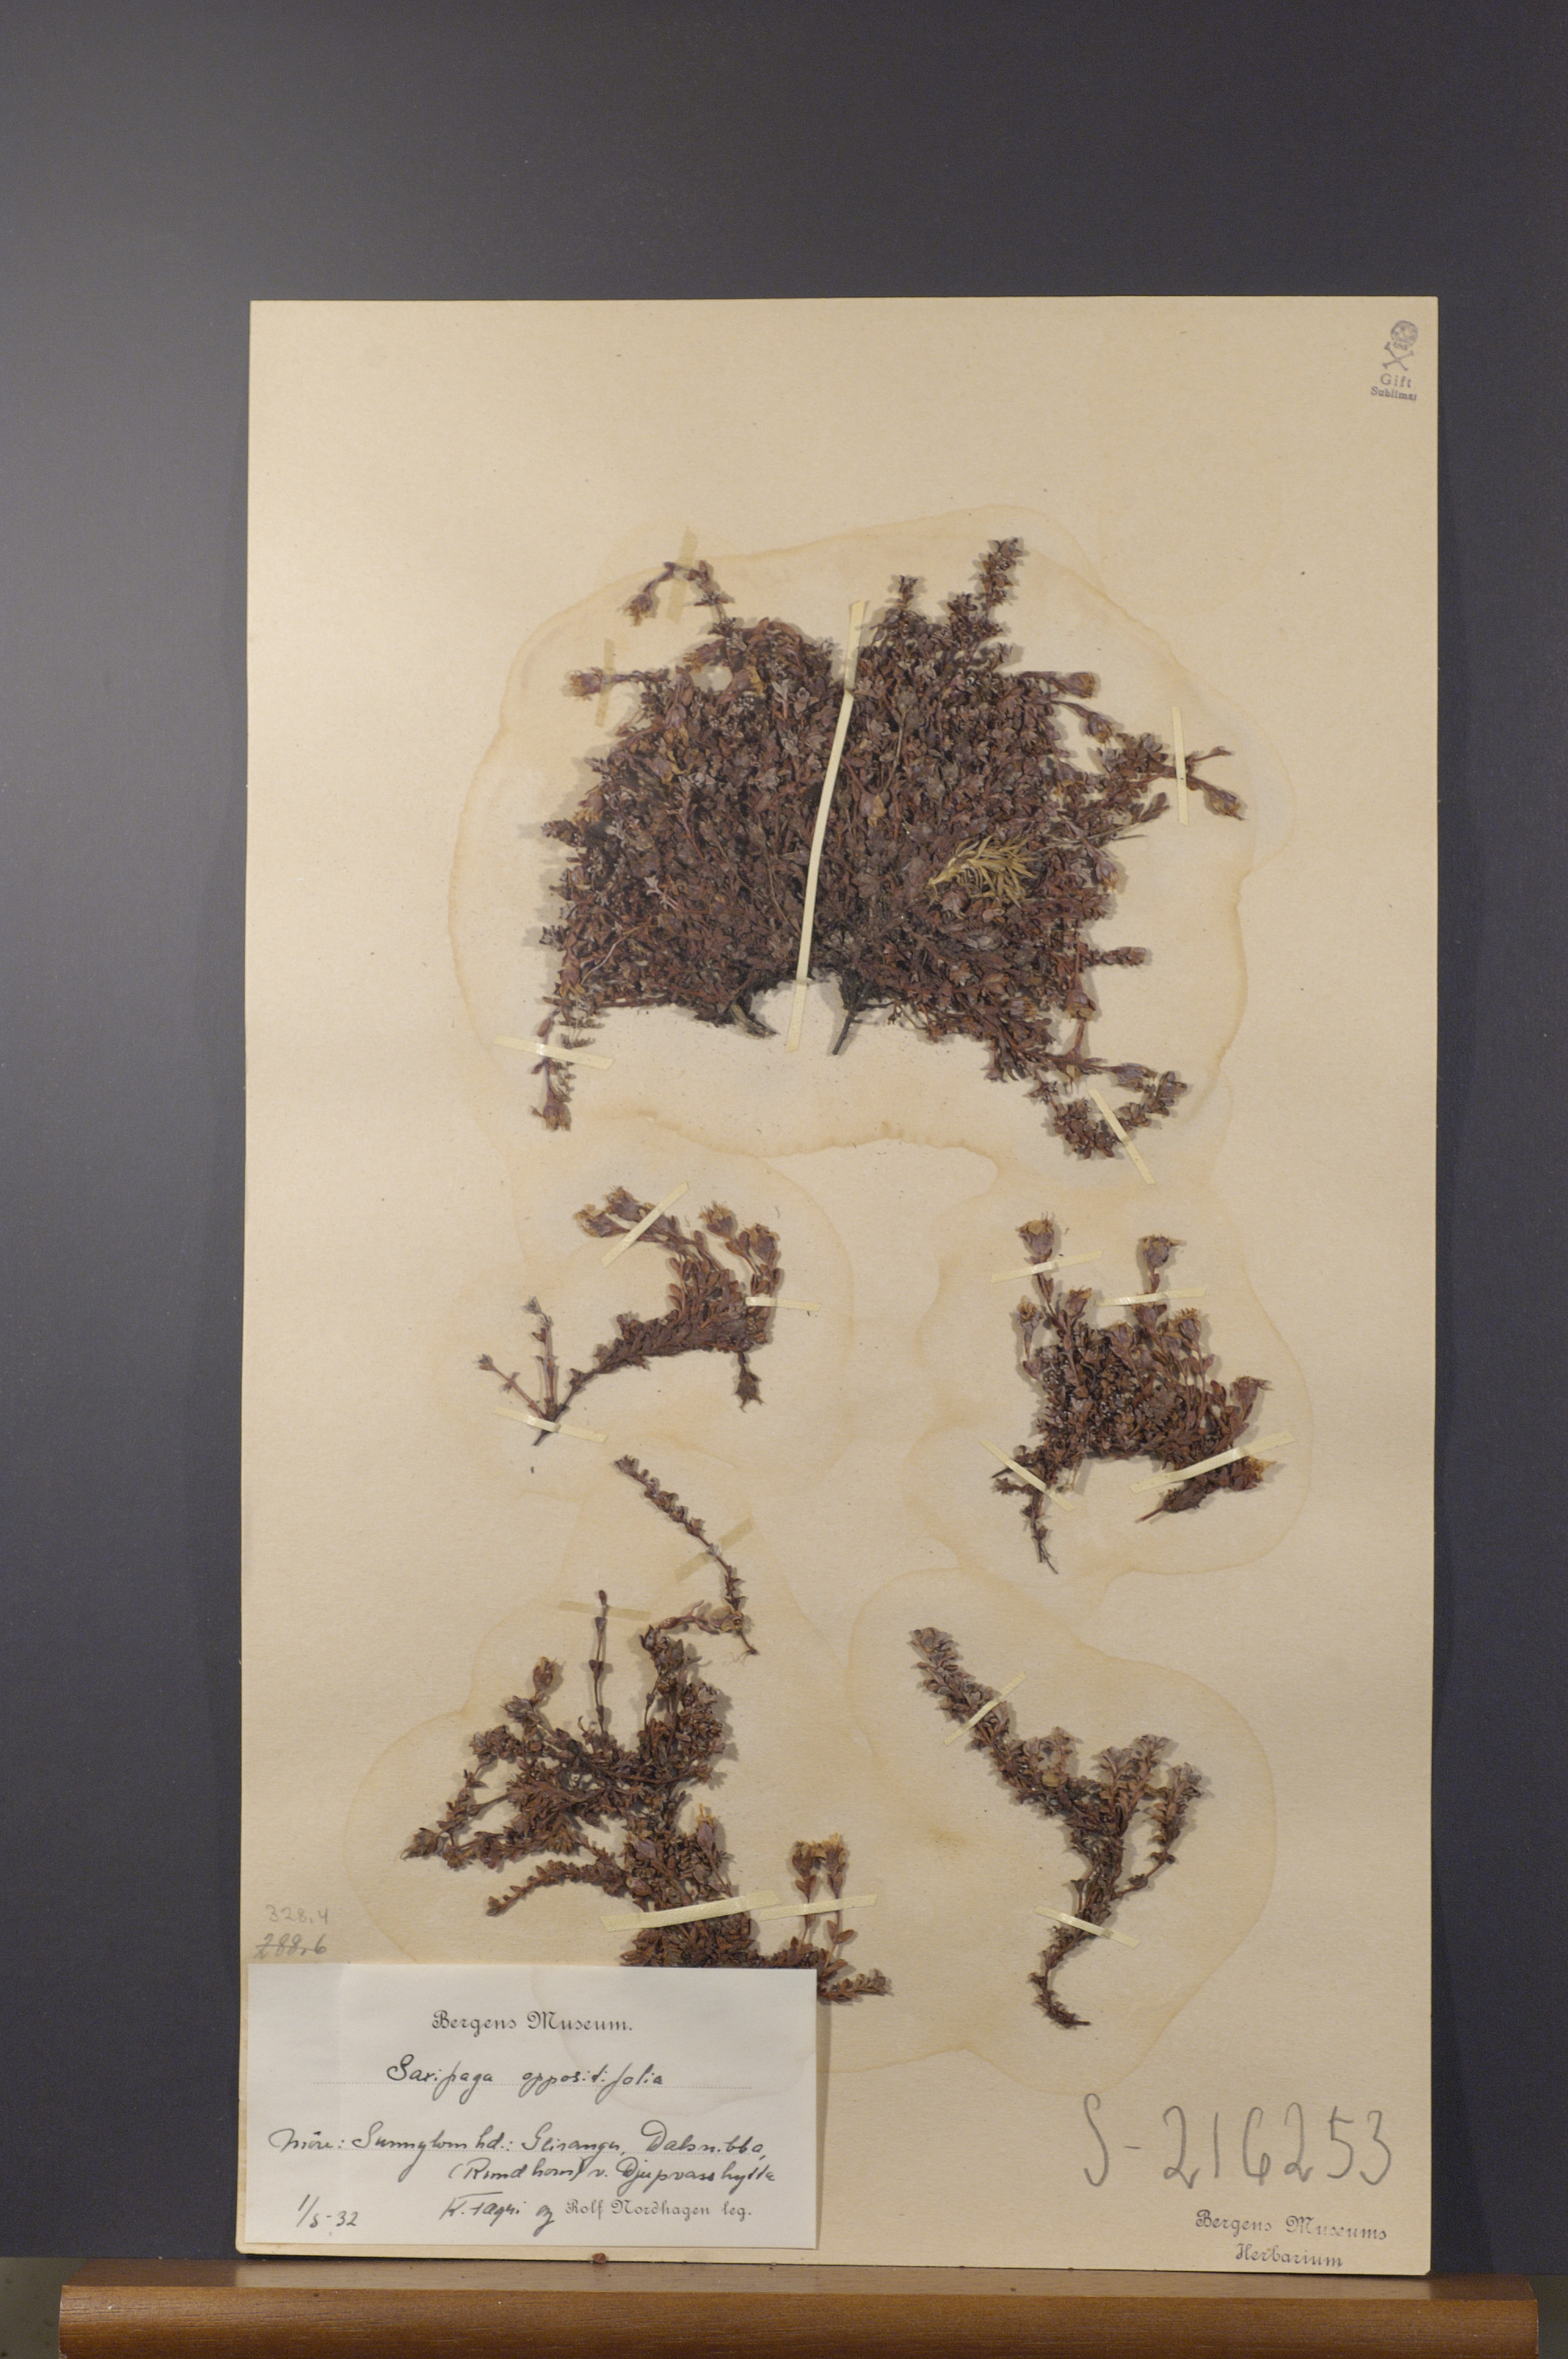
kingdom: Plantae
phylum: Tracheophyta
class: Magnoliopsida
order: Saxifragales
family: Saxifragaceae
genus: Saxifraga
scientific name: Saxifraga oppositifolia
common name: Purple saxifrage
